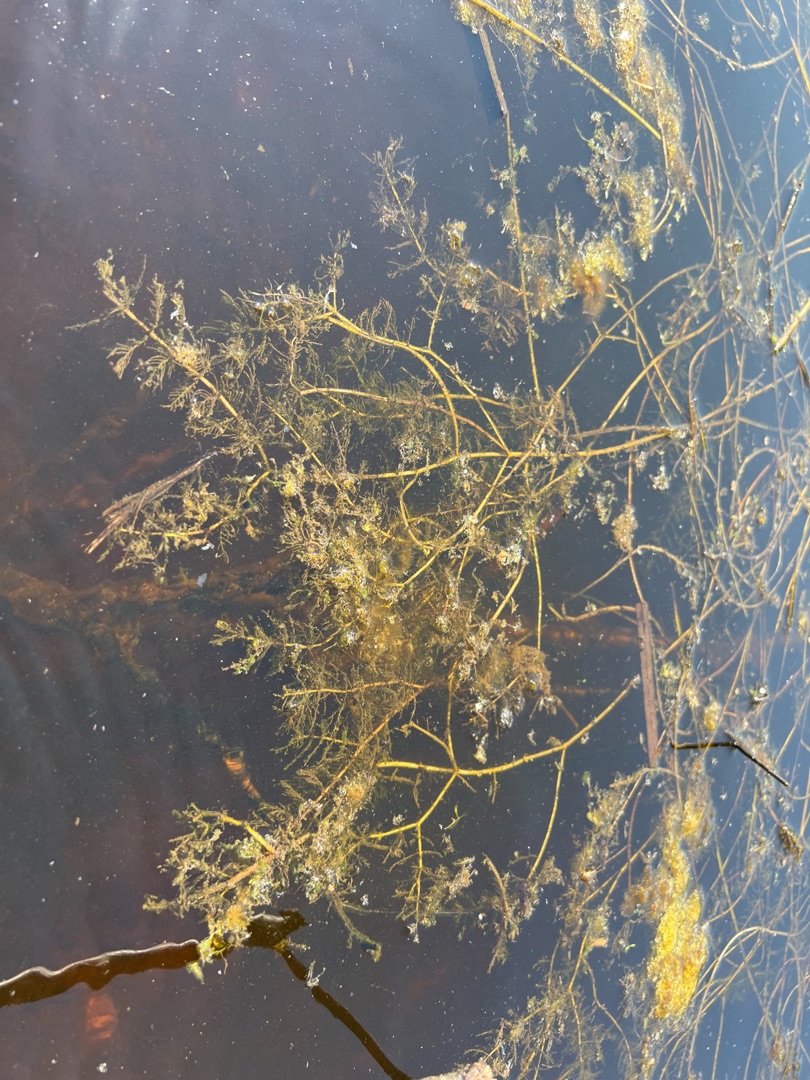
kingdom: Plantae
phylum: Tracheophyta
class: Magnoliopsida
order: Saxifragales
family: Haloragaceae
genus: Myriophyllum
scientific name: Myriophyllum spicatum
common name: Aks-tusindblad
